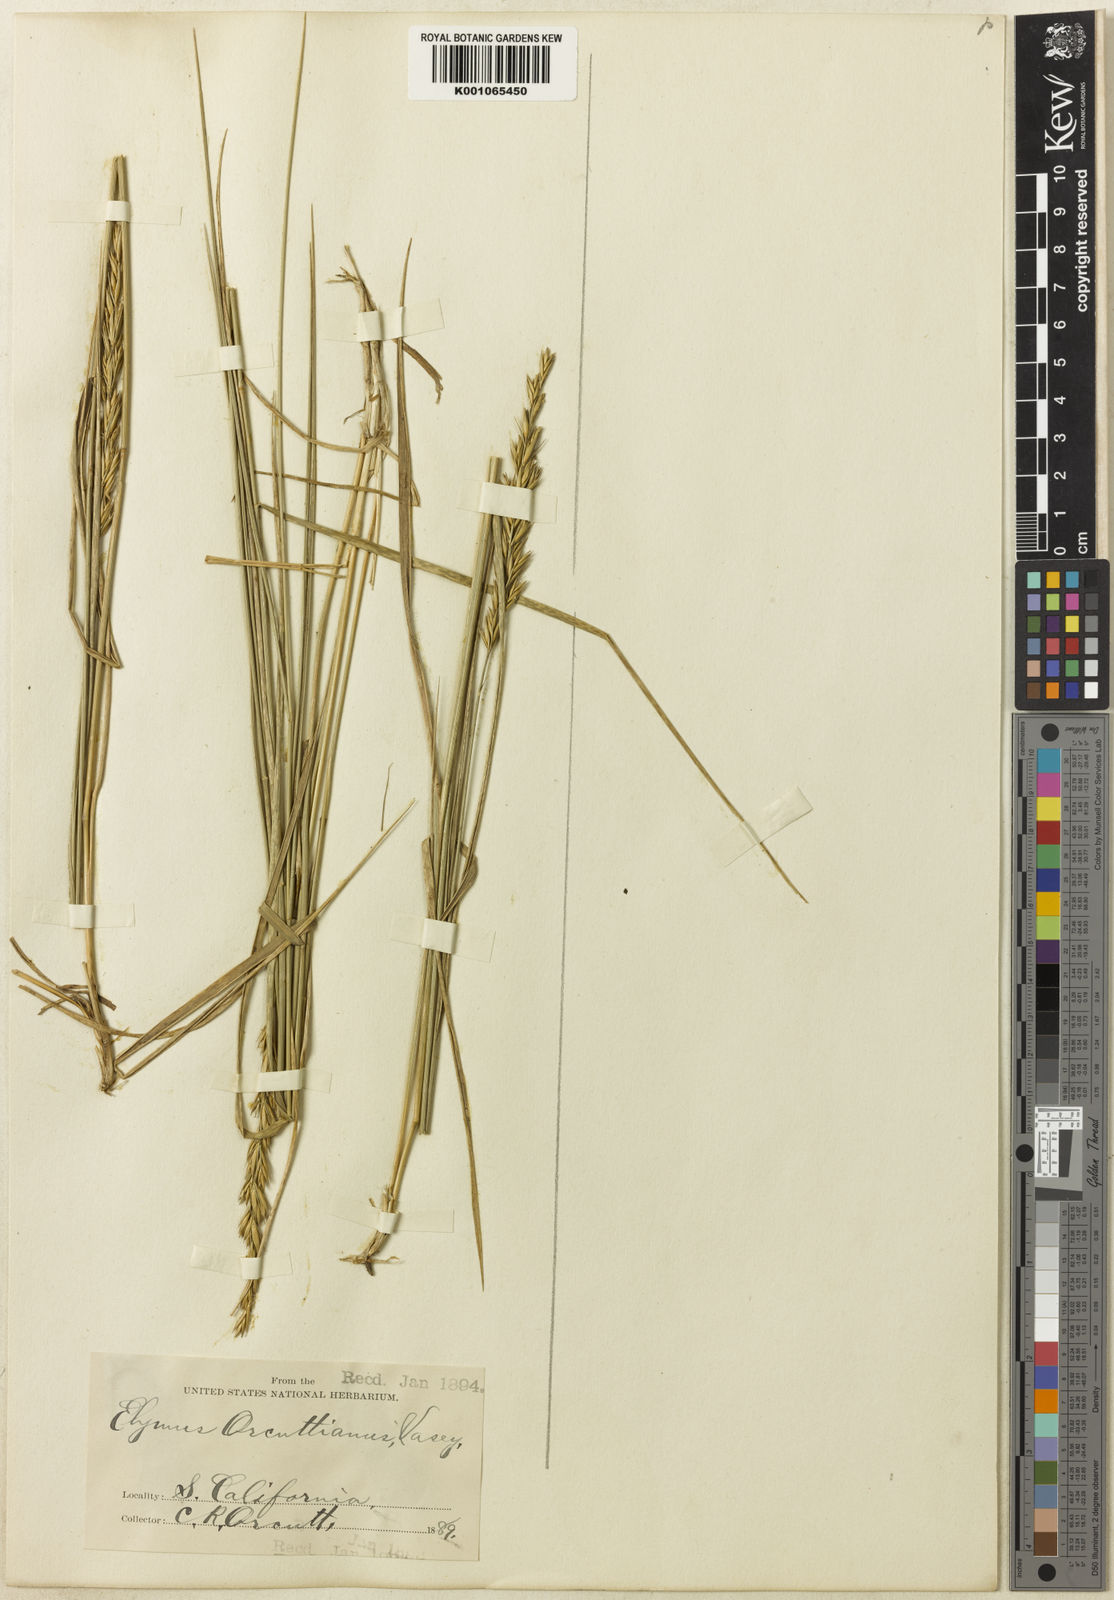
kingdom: Plantae
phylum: Tracheophyta
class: Liliopsida
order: Poales
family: Poaceae
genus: Leymus
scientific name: Leymus triticoides
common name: Beardless wild rye
